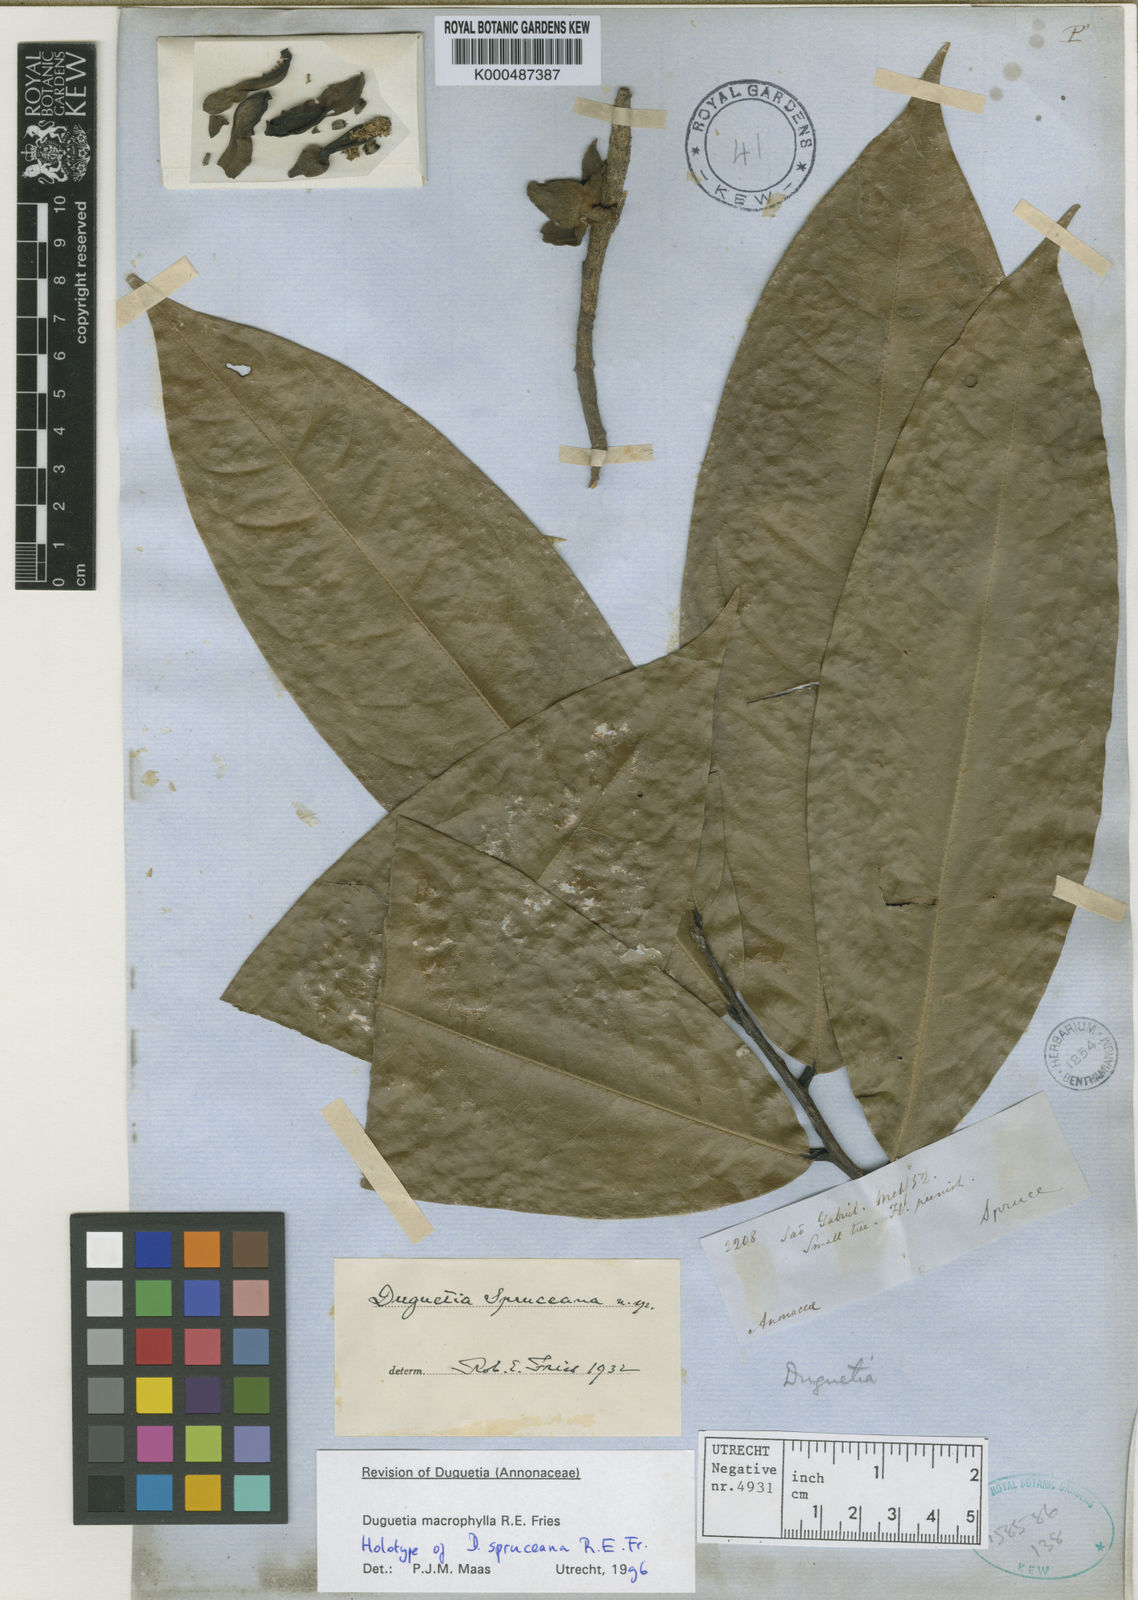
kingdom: Plantae
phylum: Tracheophyta
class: Magnoliopsida
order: Magnoliales
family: Annonaceae
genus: Duguetia
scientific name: Duguetia macrophylla
